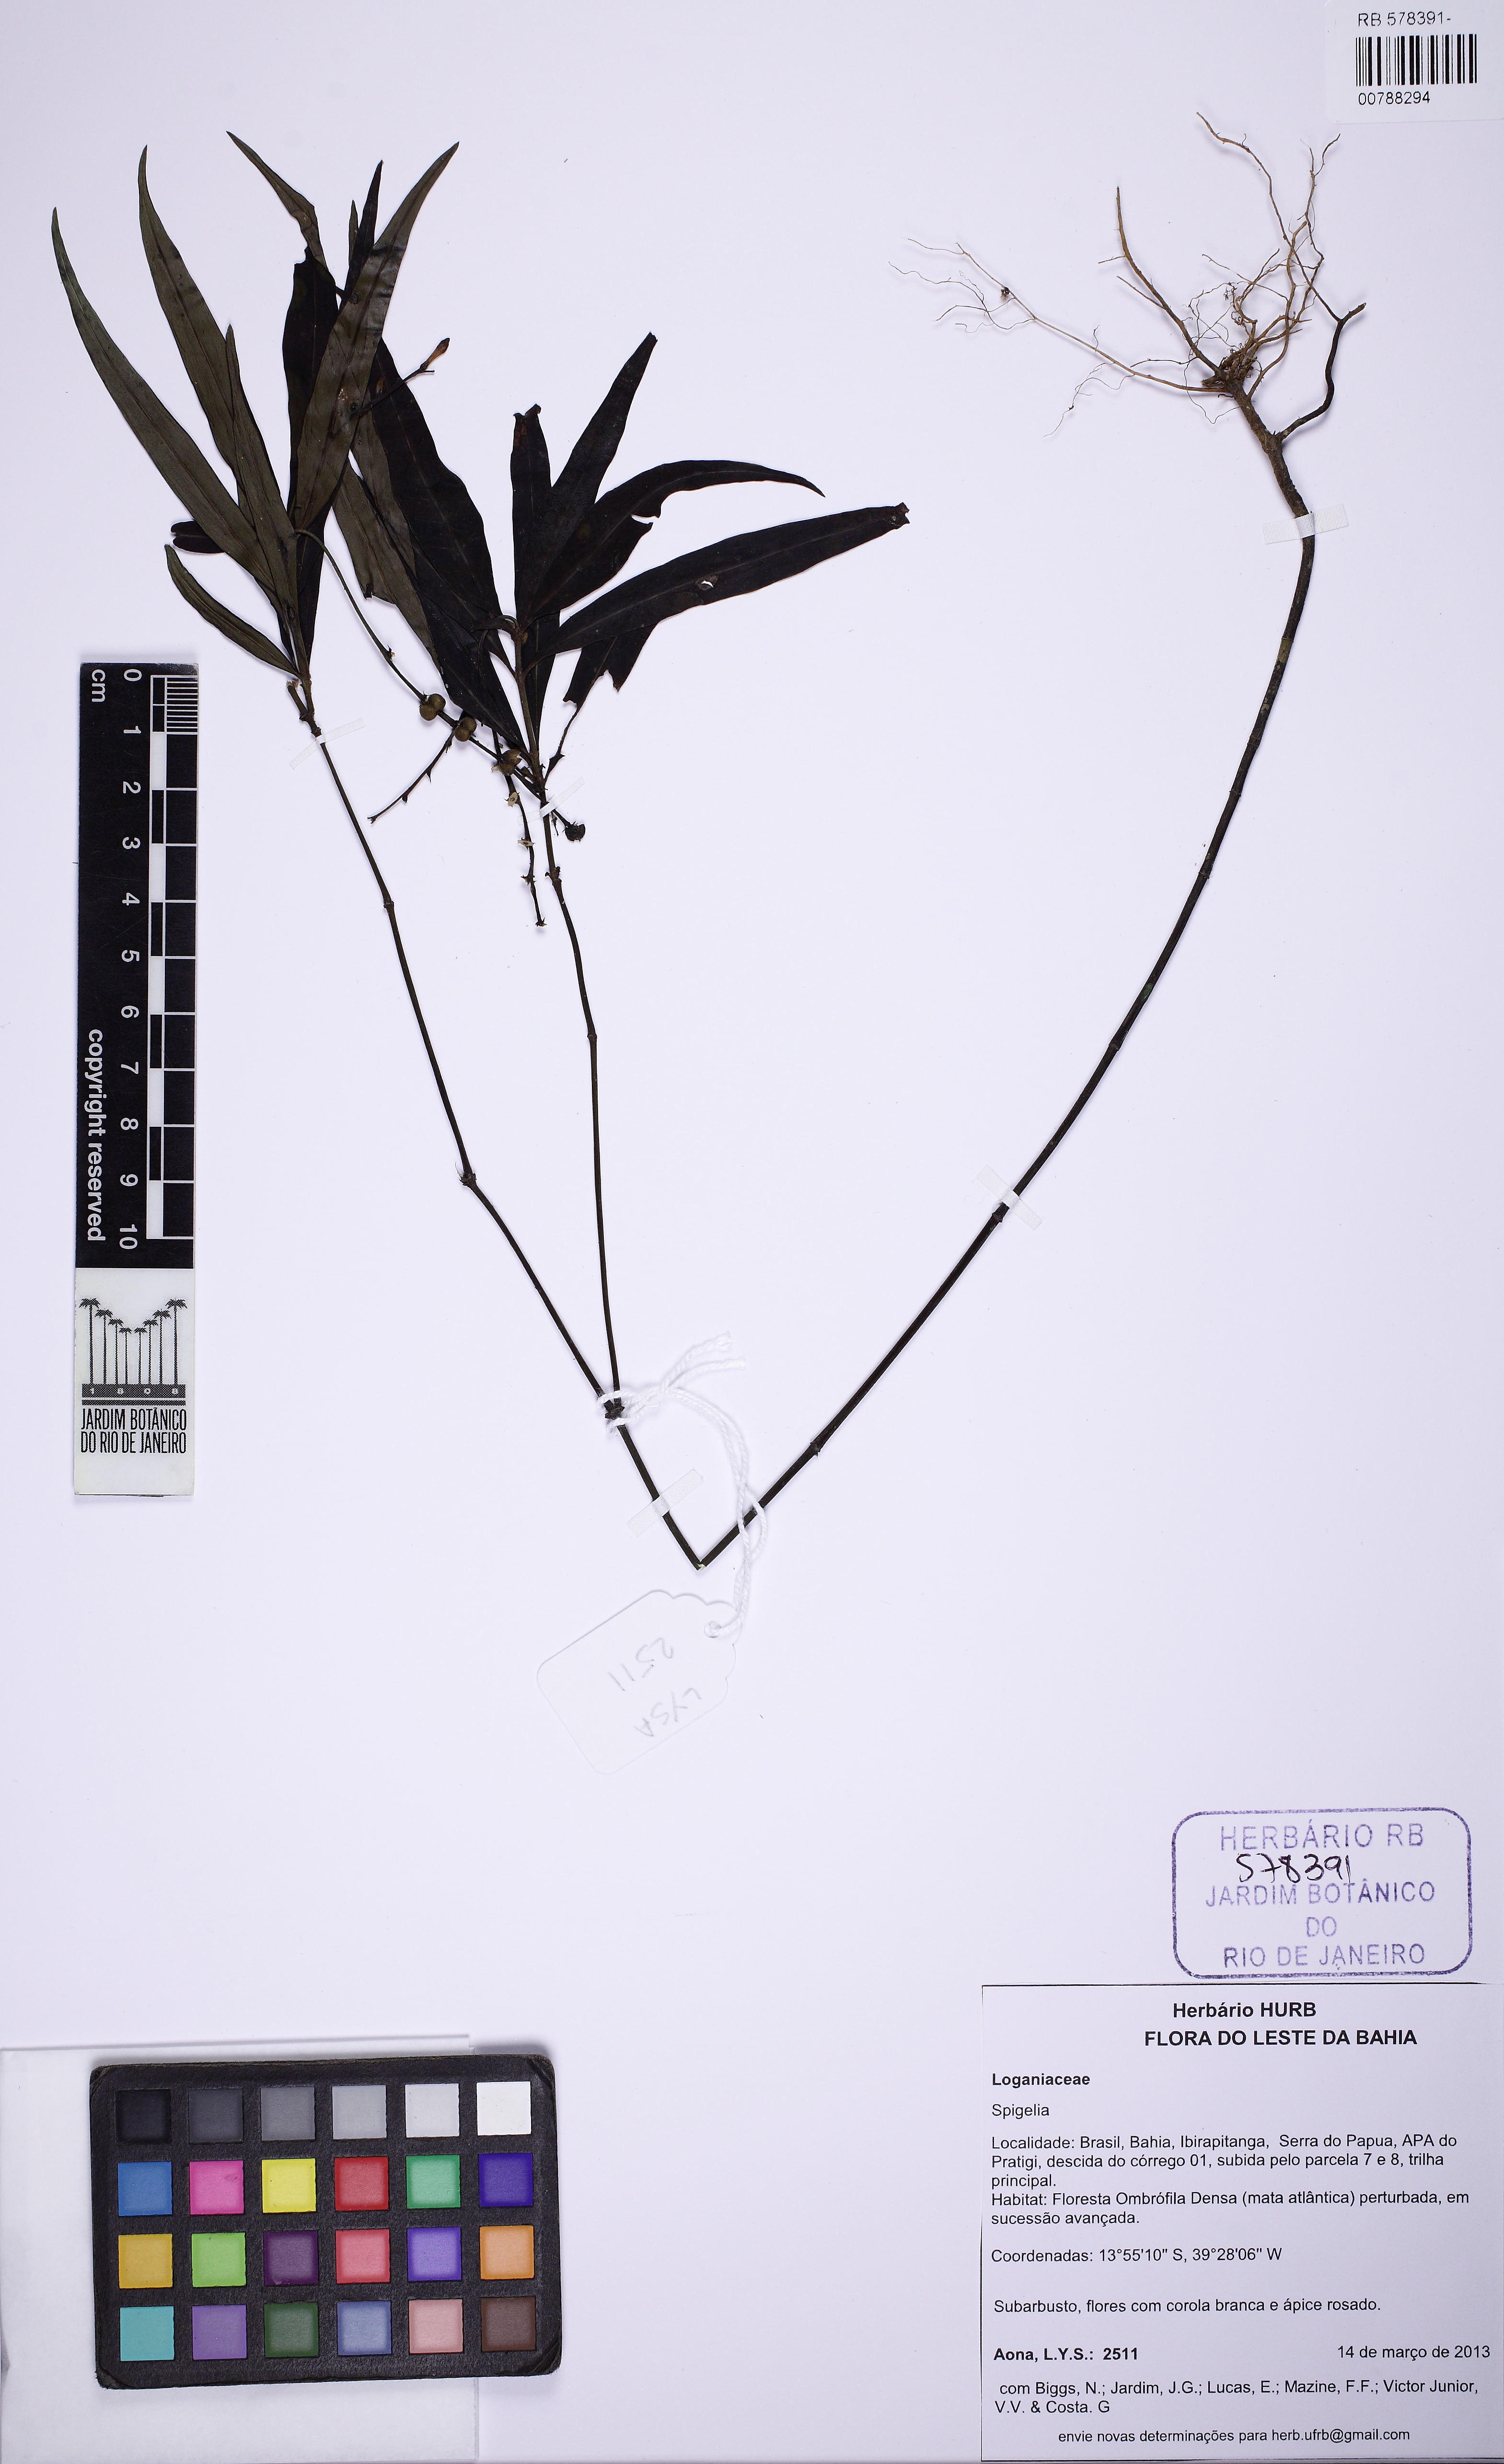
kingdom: Plantae
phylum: Tracheophyta
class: Magnoliopsida
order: Gentianales
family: Loganiaceae
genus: Spigelia
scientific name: Spigelia laurina
